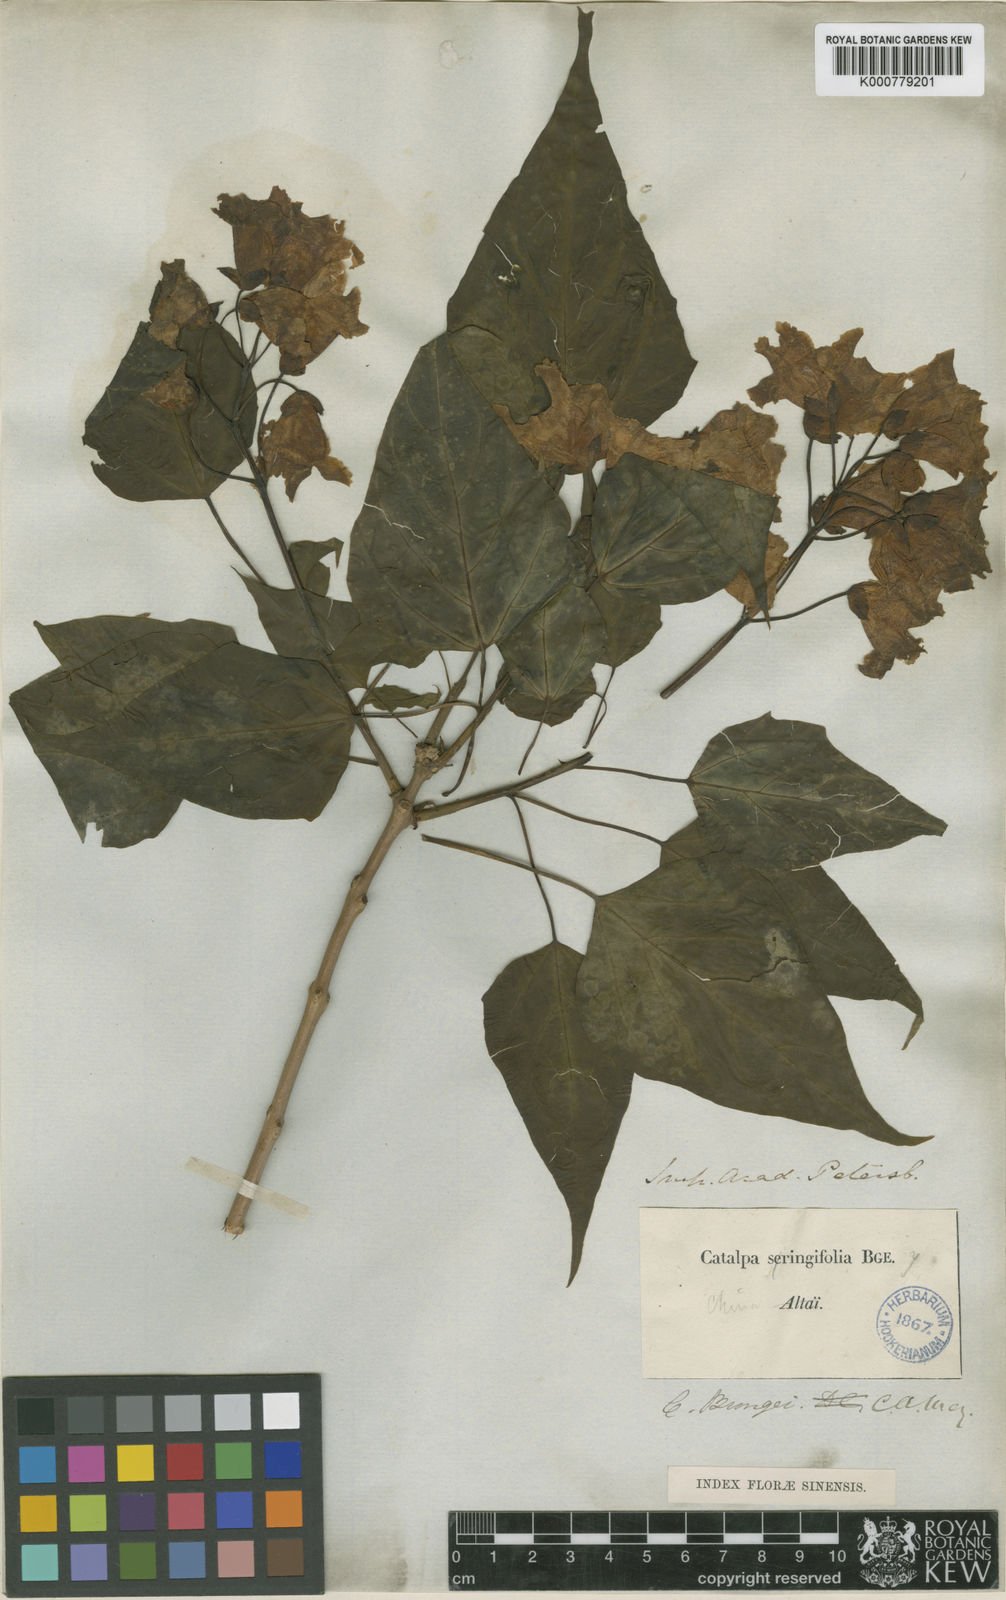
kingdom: Plantae
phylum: Tracheophyta
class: Magnoliopsida
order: Lamiales
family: Bignoniaceae
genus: Catalpa
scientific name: Catalpa bungei
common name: Manchurian catalpa
